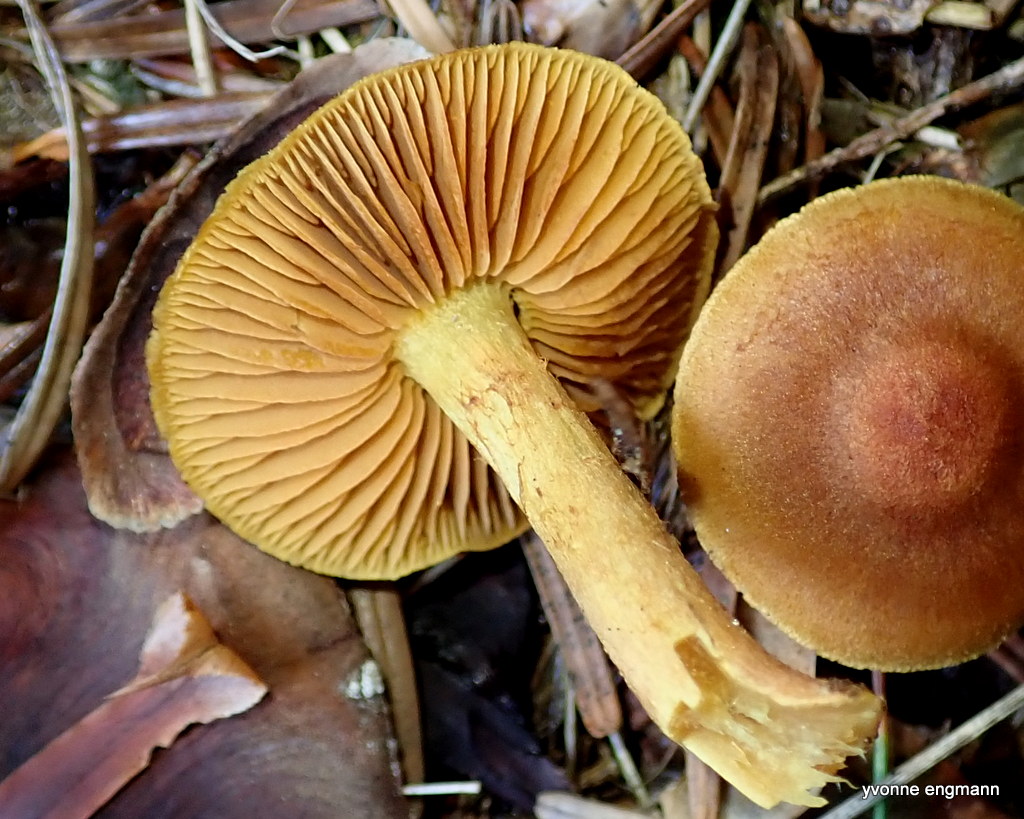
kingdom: Fungi
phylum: Basidiomycota
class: Agaricomycetes
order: Agaricales
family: Cortinariaceae
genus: Cortinarius
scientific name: Cortinarius
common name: gulbladet slørhat
